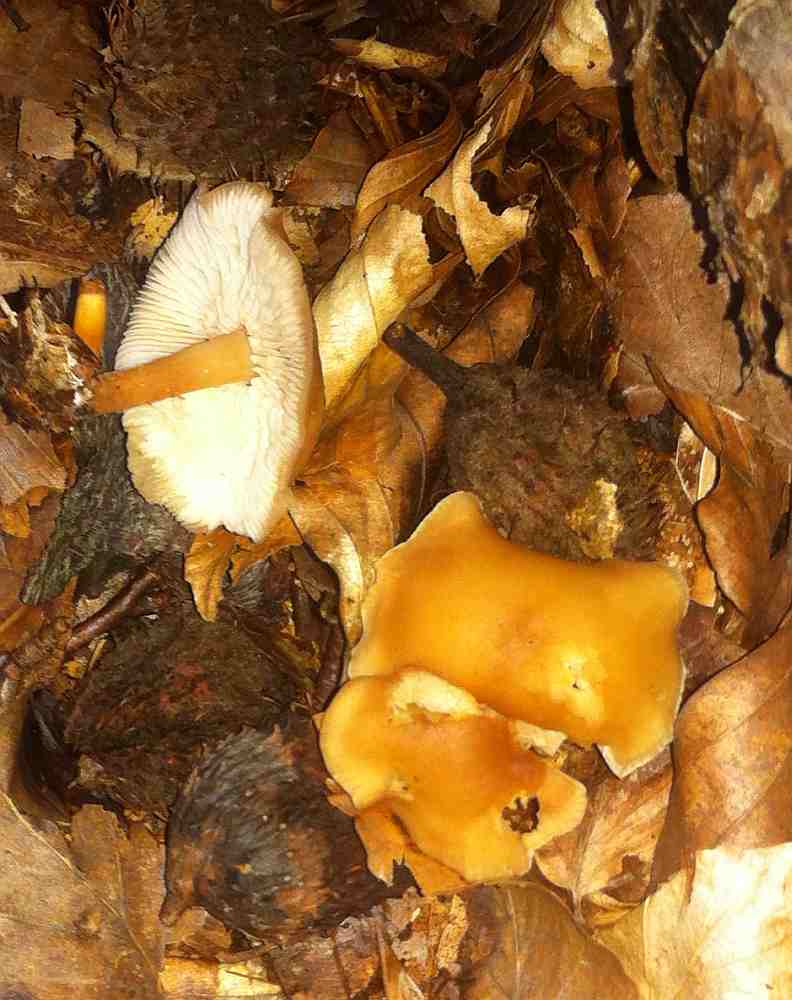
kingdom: Fungi
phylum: Basidiomycota
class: Agaricomycetes
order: Agaricales
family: Omphalotaceae
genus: Gymnopus
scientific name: Gymnopus dryophilus
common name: løv-fladhat
